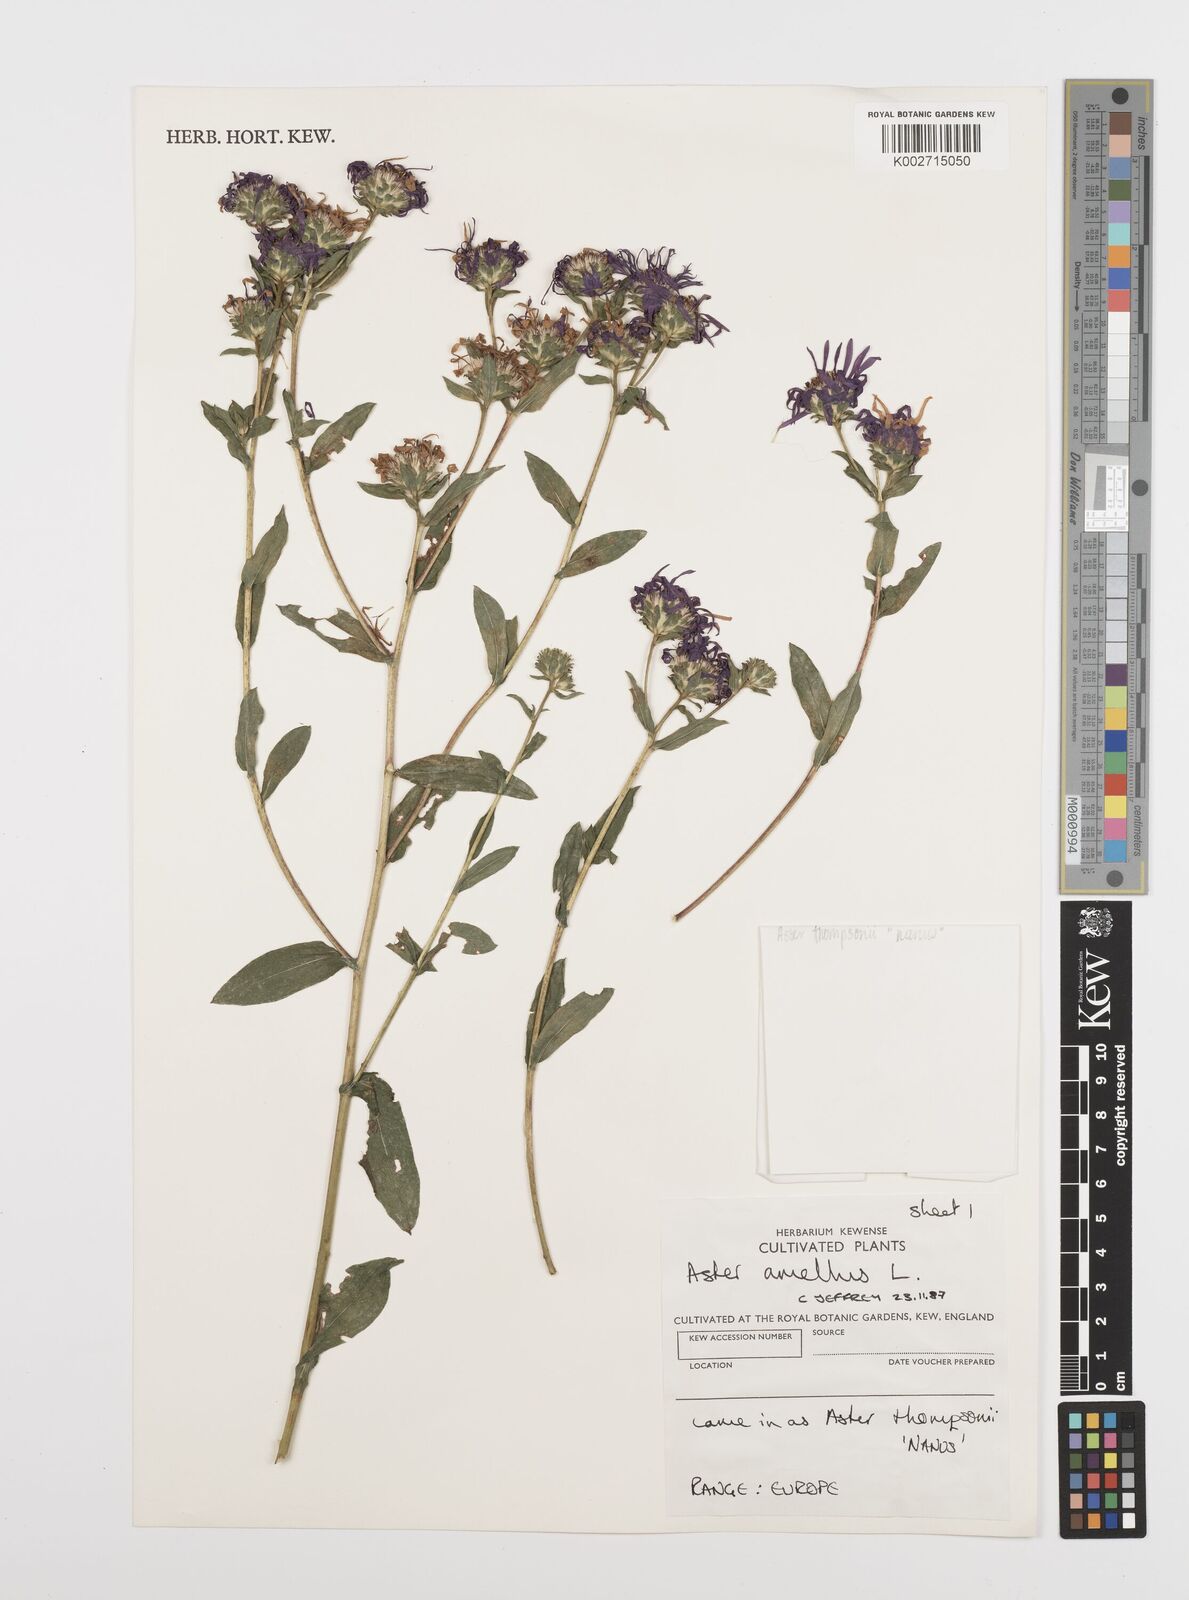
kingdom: Plantae
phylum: Tracheophyta
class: Magnoliopsida
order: Asterales
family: Asteraceae
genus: Aster
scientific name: Aster amellus
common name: European michaelmas daisy
